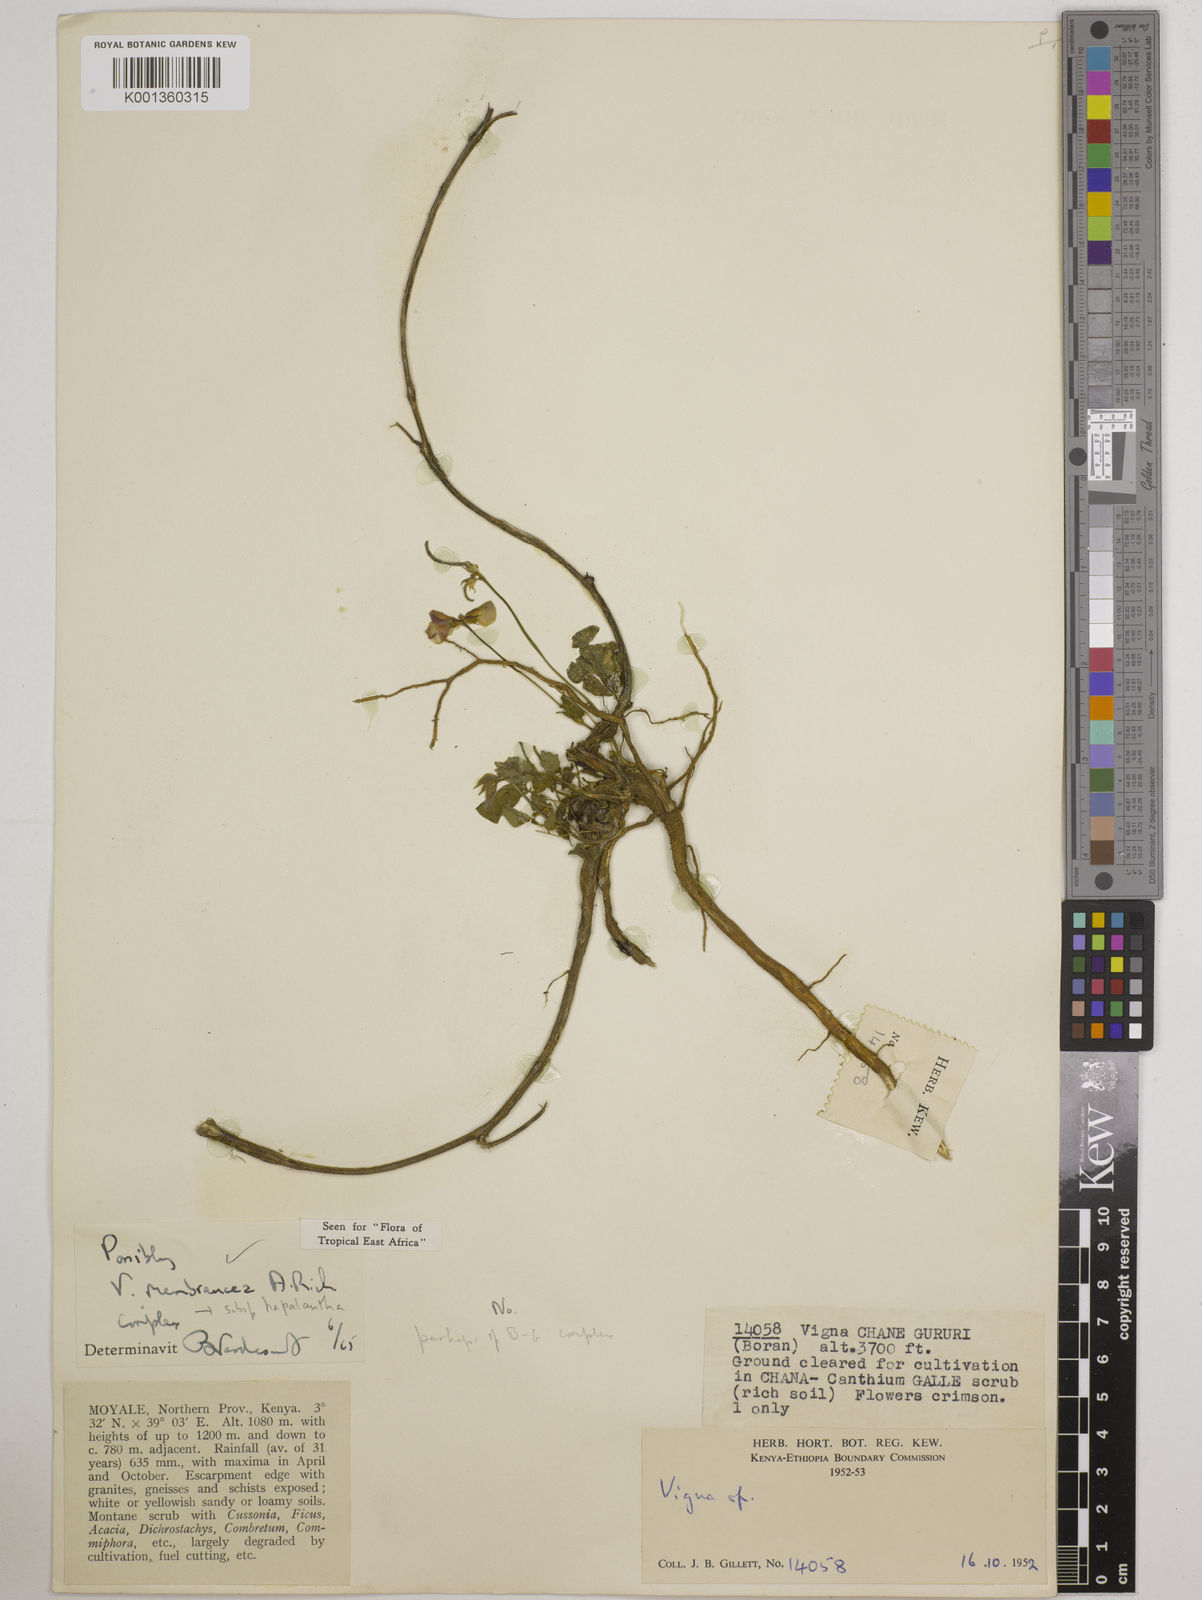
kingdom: Plantae
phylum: Tracheophyta
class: Magnoliopsida
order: Fabales
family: Fabaceae
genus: Vigna
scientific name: Vigna membranacea
